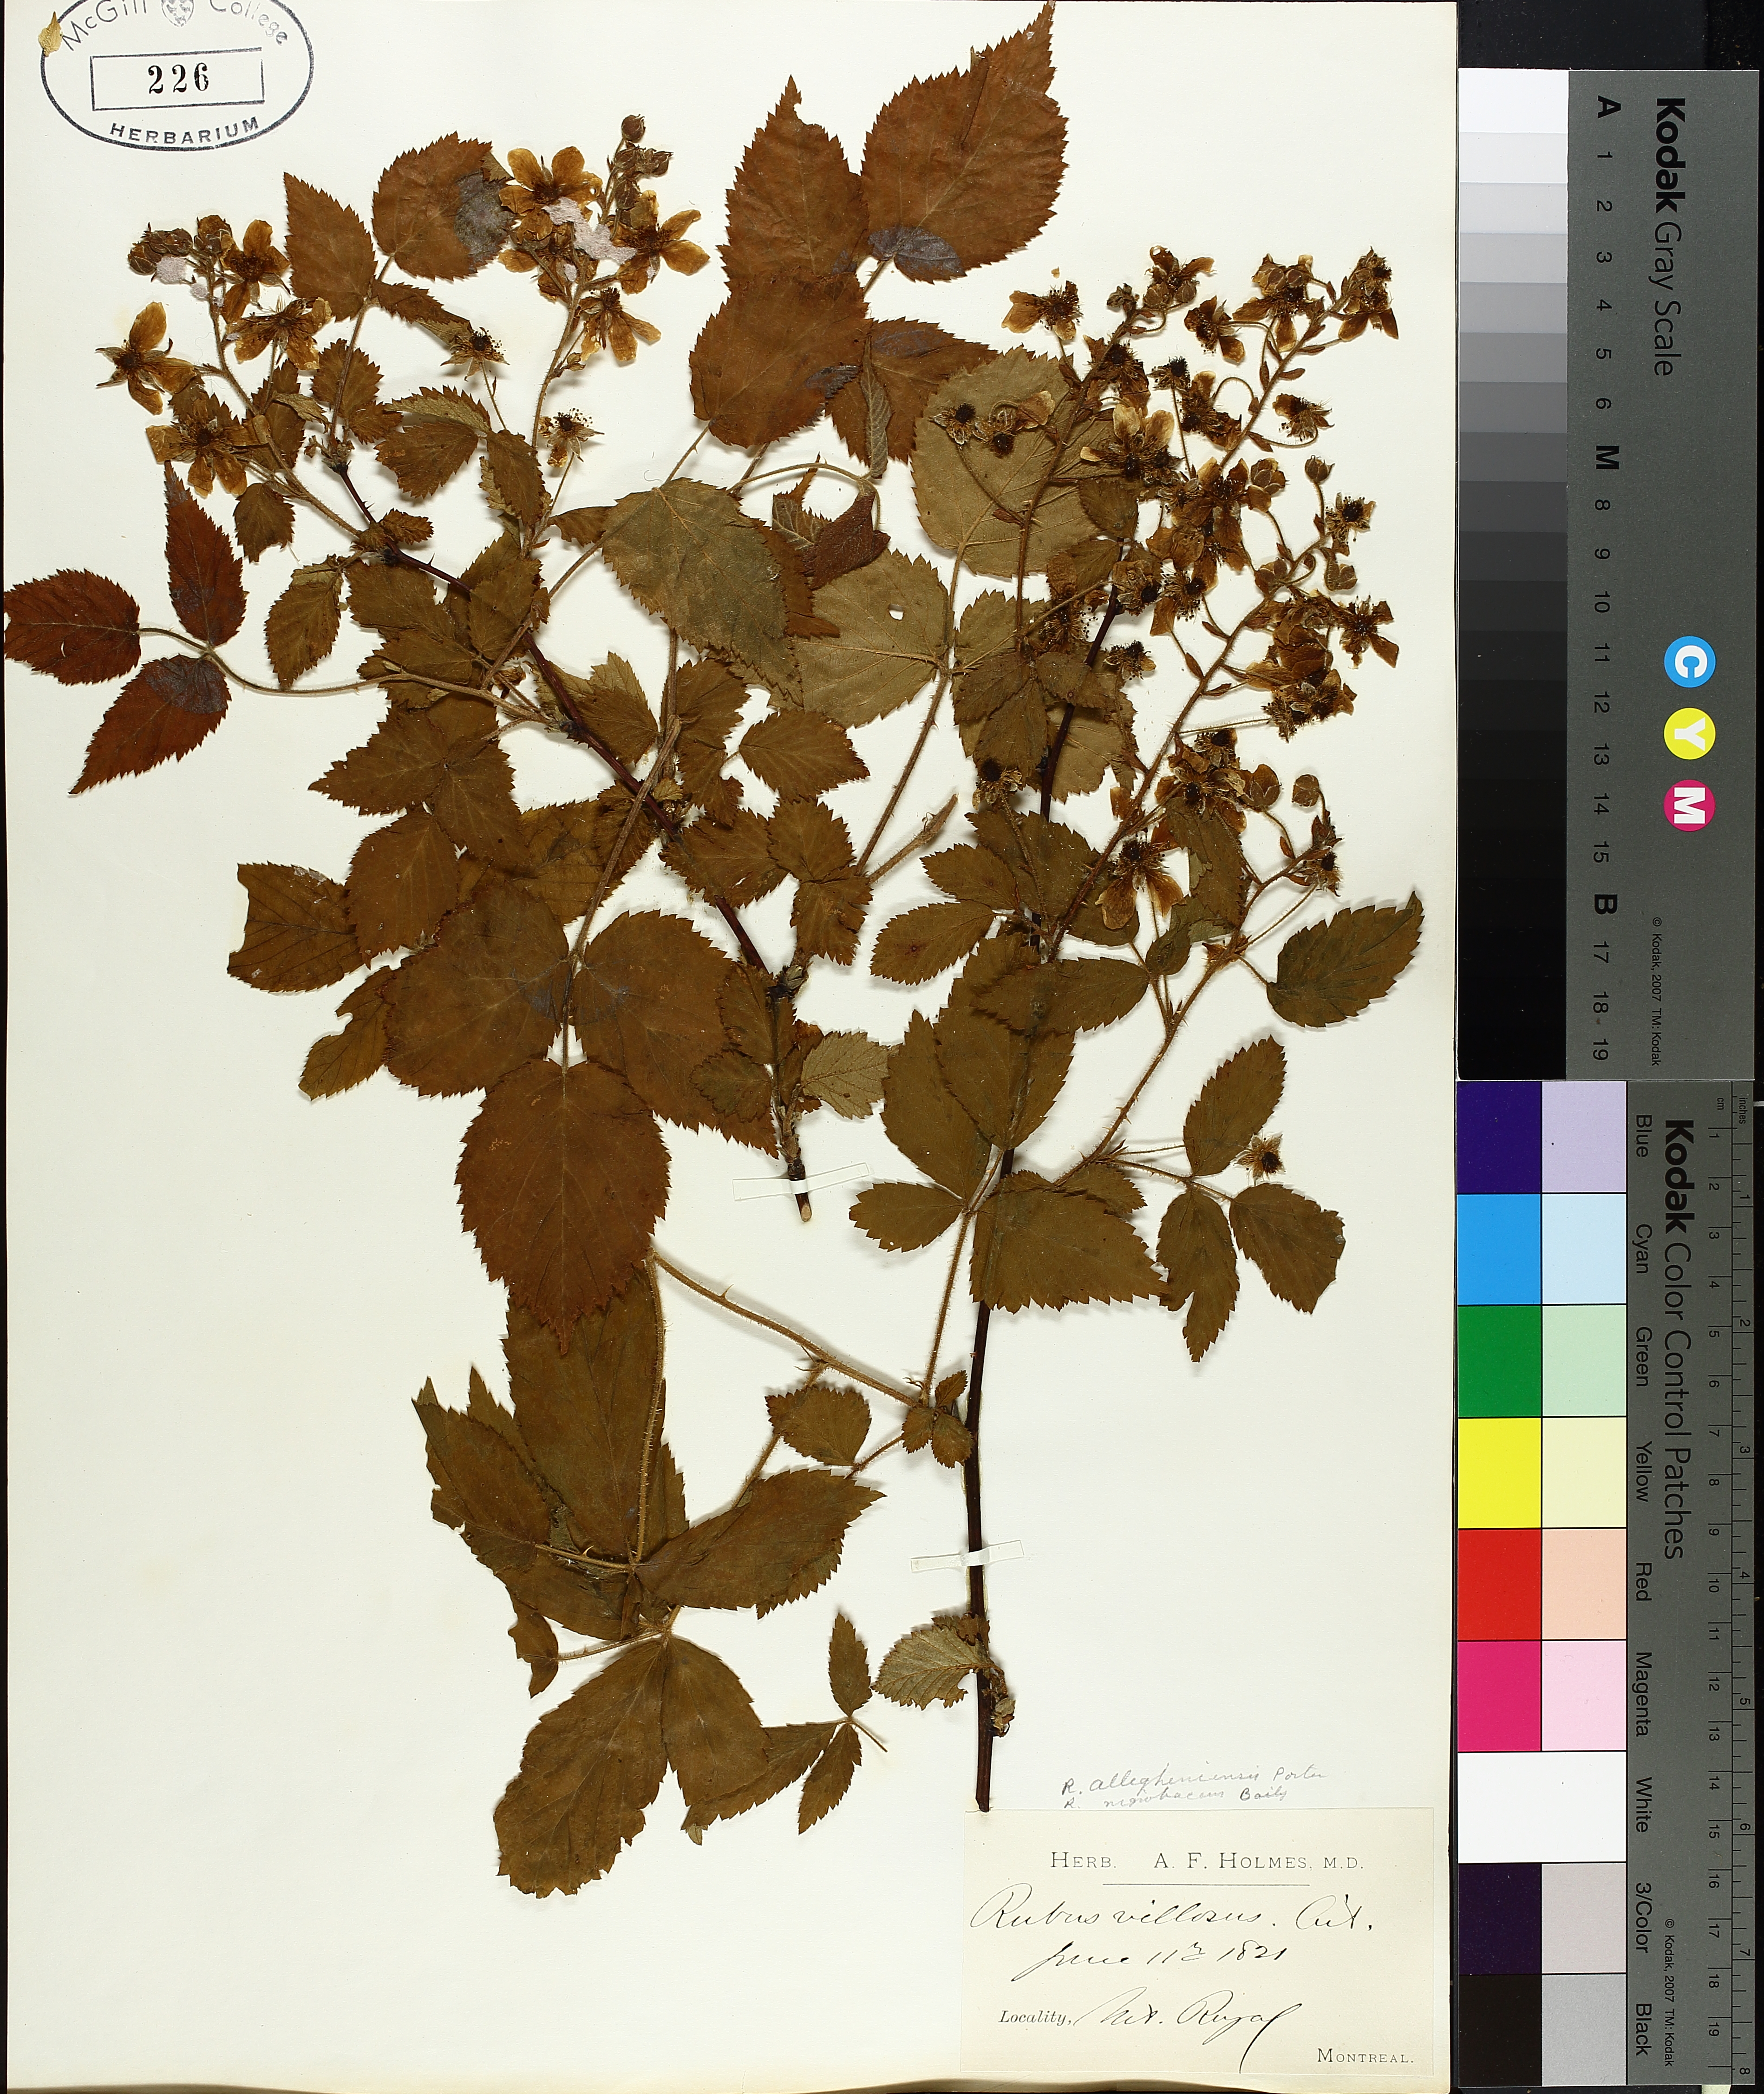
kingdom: Plantae
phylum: Tracheophyta
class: Magnoliopsida
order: Rosales
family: Rosaceae
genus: Rubus
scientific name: Rubus allegheniensis
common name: Allegheny blackberry
